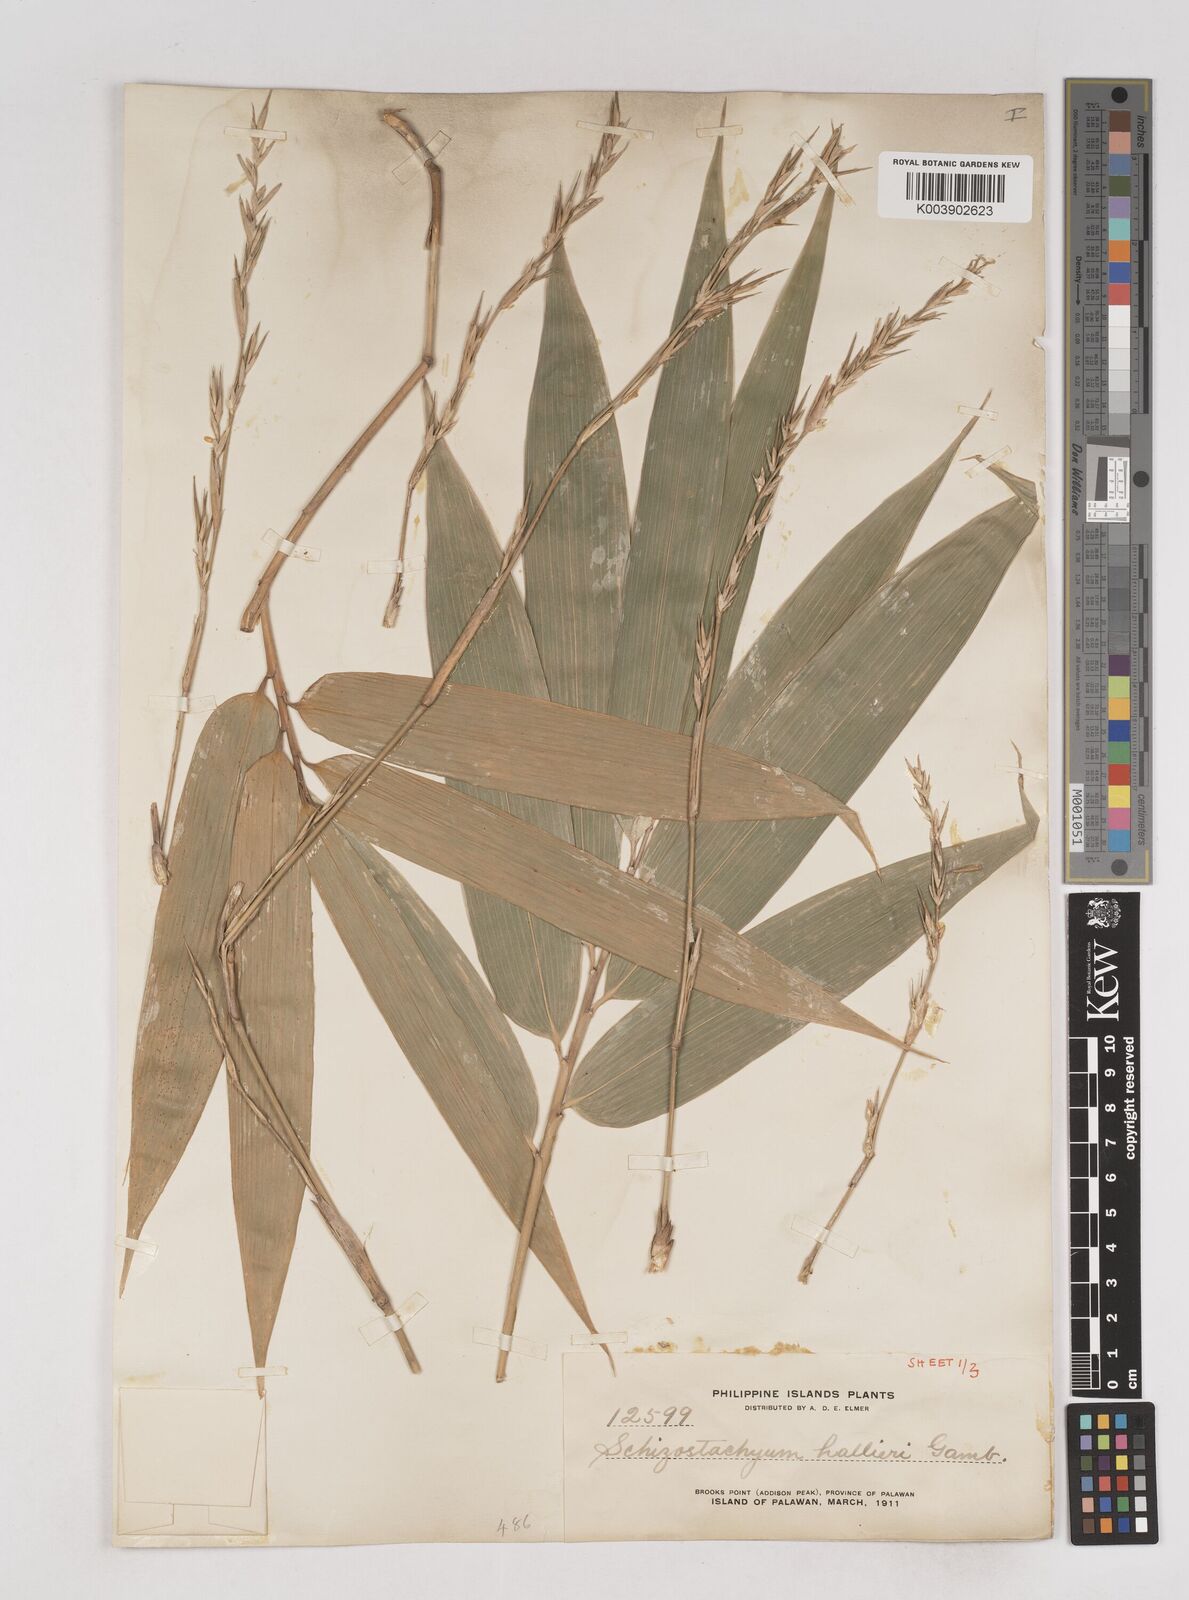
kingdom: Plantae
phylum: Tracheophyta
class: Liliopsida
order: Poales
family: Poaceae
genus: Schizostachyum
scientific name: Schizostachyum lima
